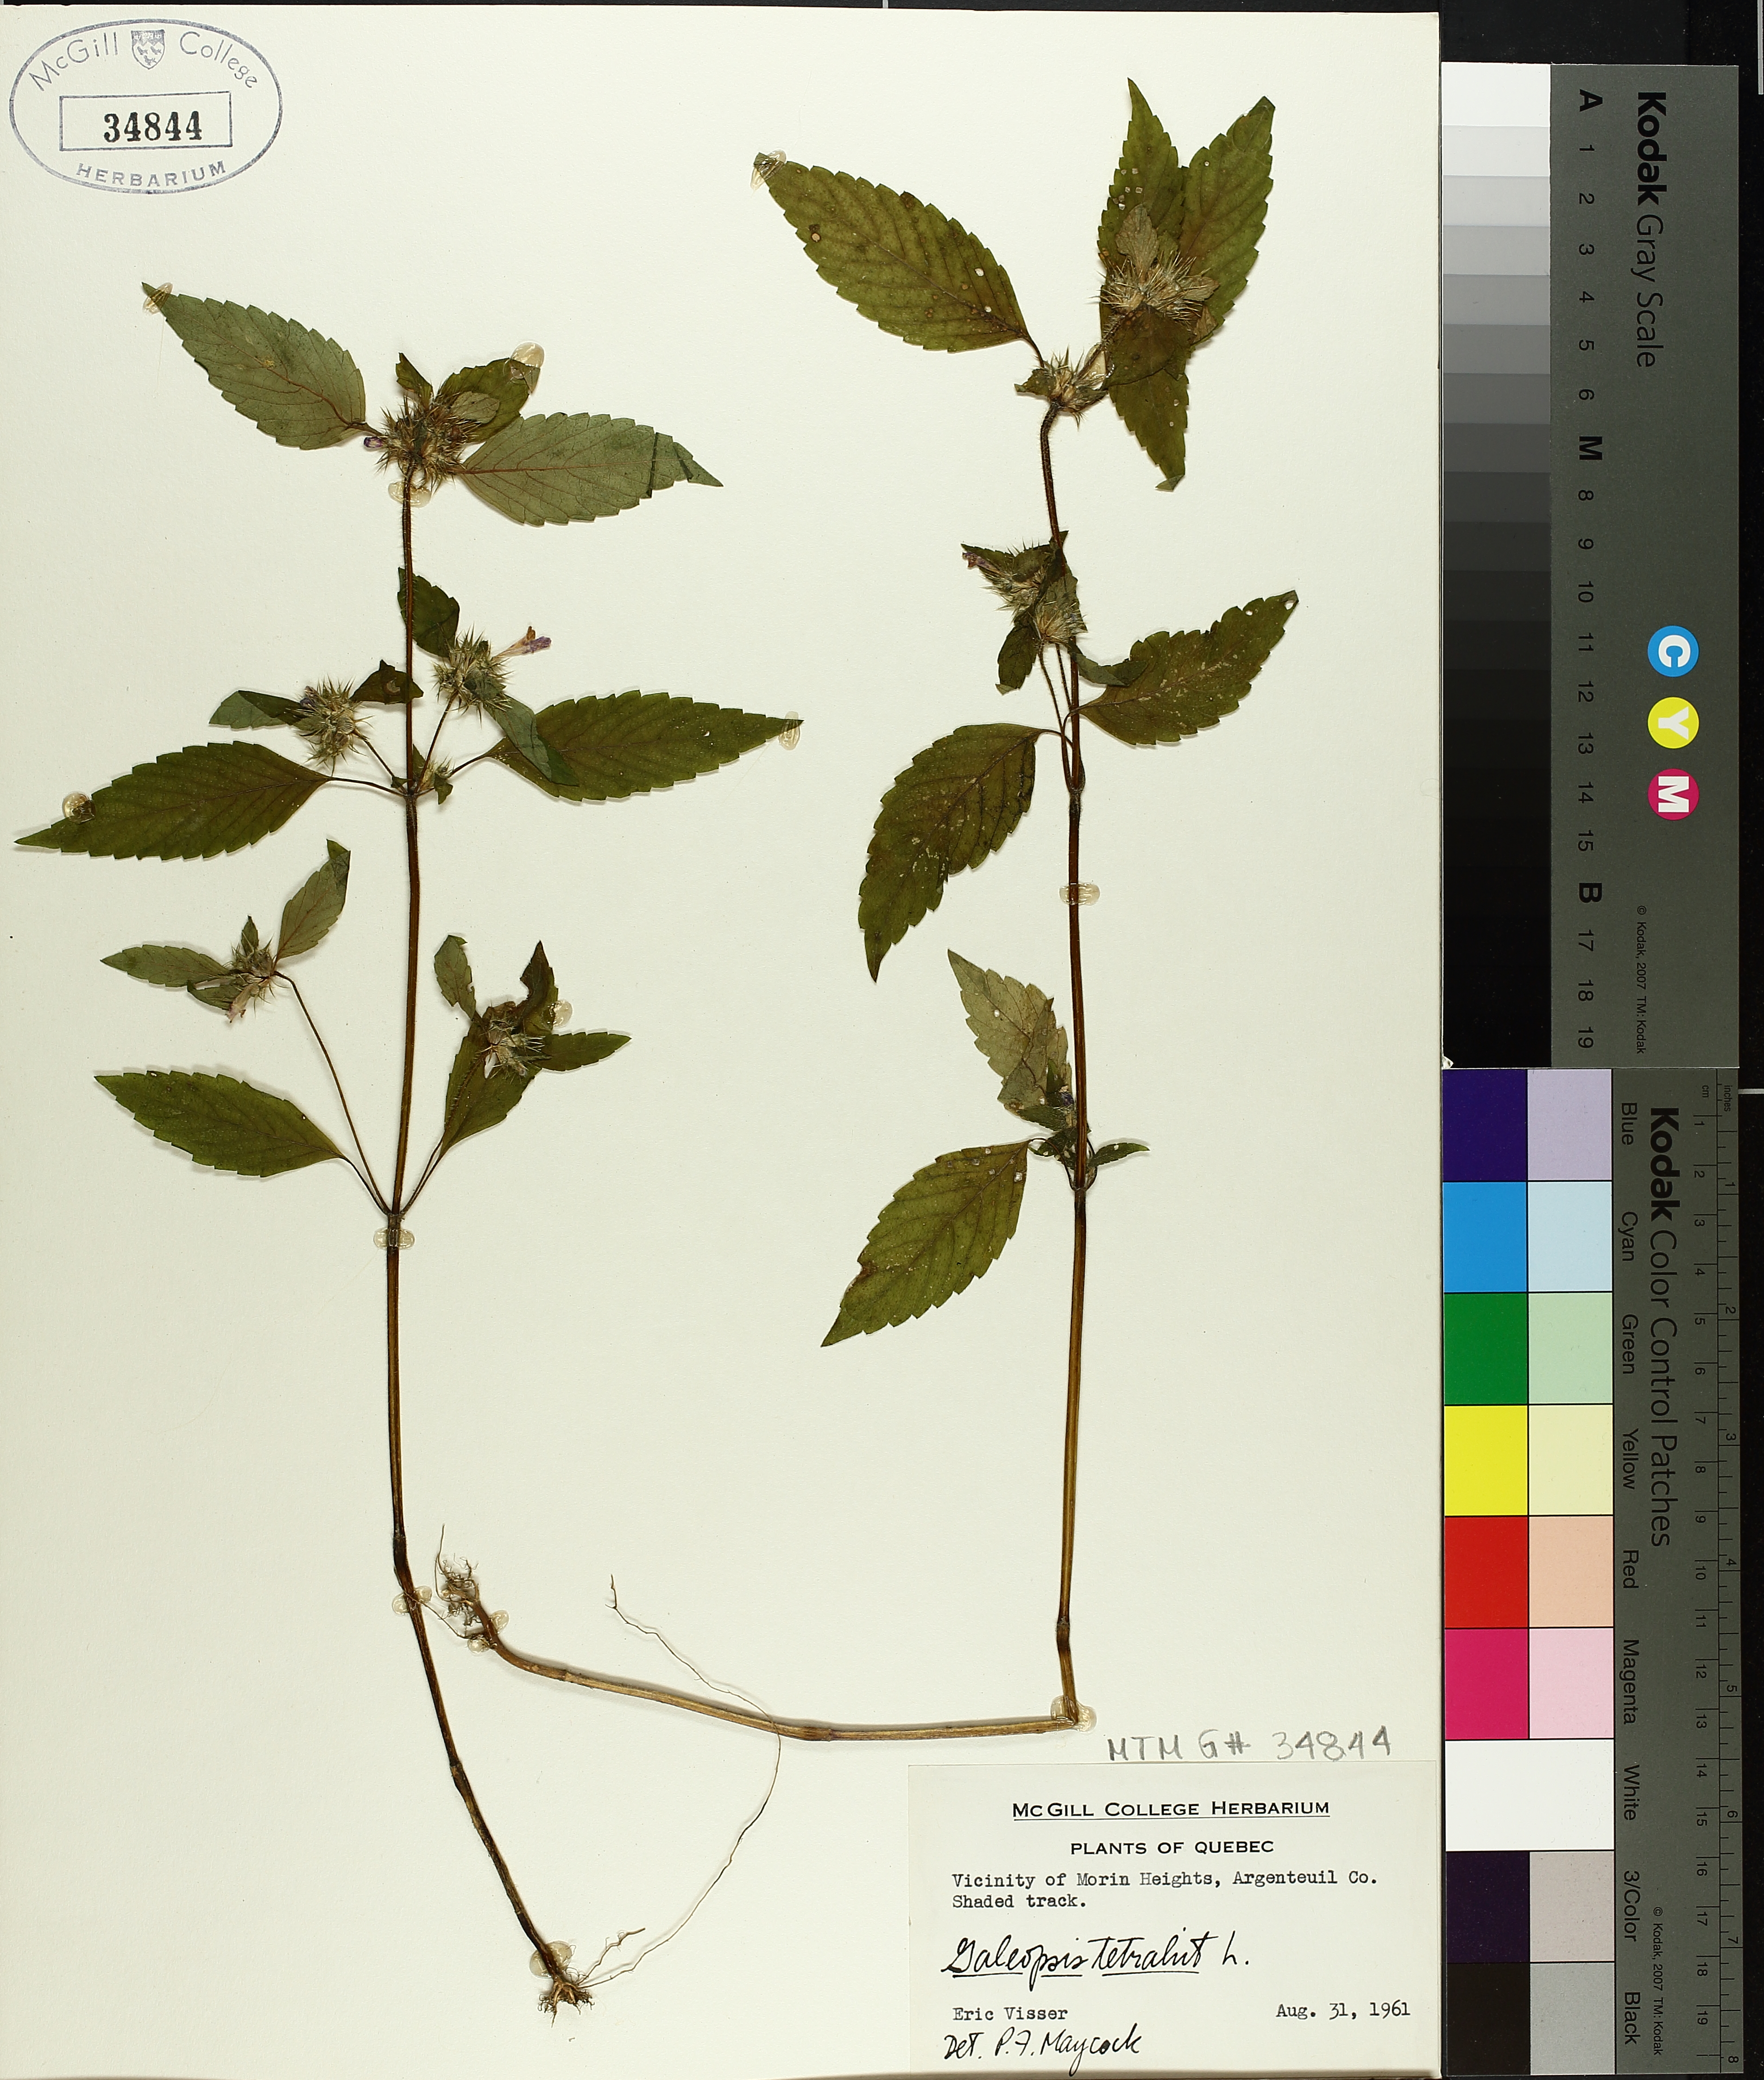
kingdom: Plantae
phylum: Tracheophyta
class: Magnoliopsida
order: Lamiales
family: Lamiaceae
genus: Galeopsis
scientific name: Galeopsis tetrahit
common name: Common hemp-nettle
